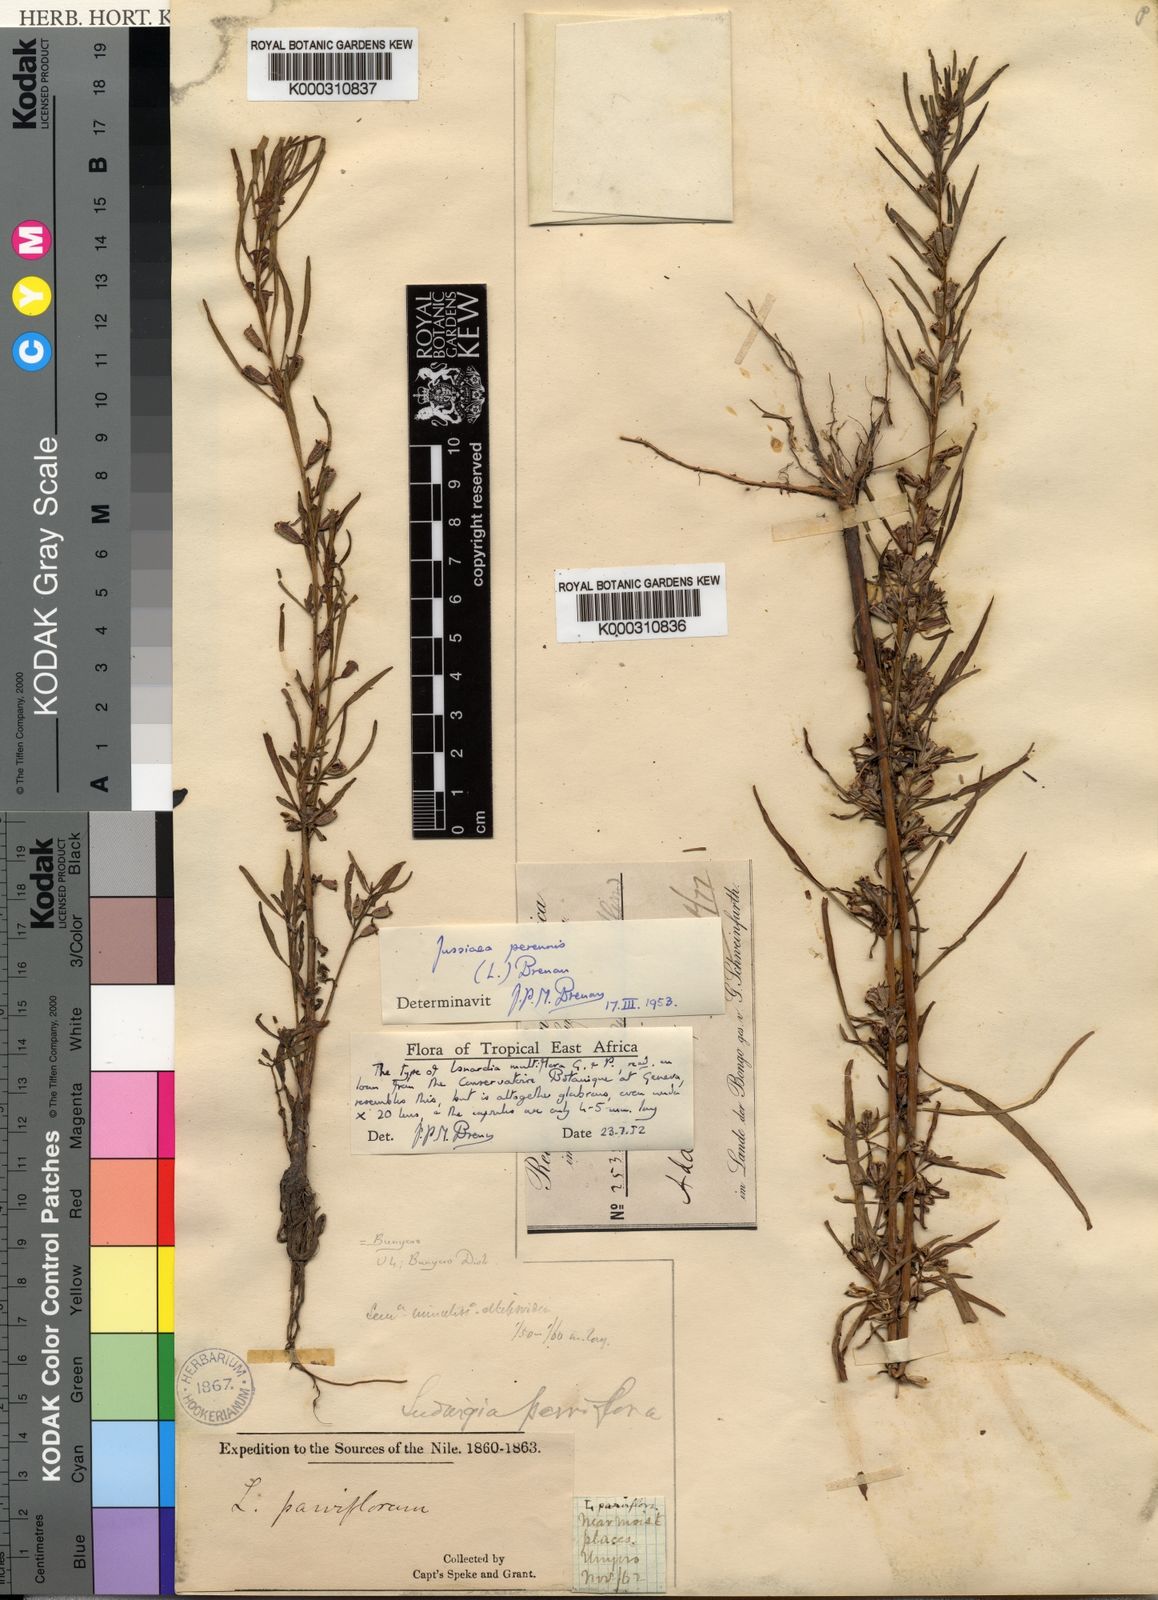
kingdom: Plantae
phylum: Tracheophyta
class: Magnoliopsida
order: Myrtales
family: Onagraceae
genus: Ludwigia
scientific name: Ludwigia perennis
